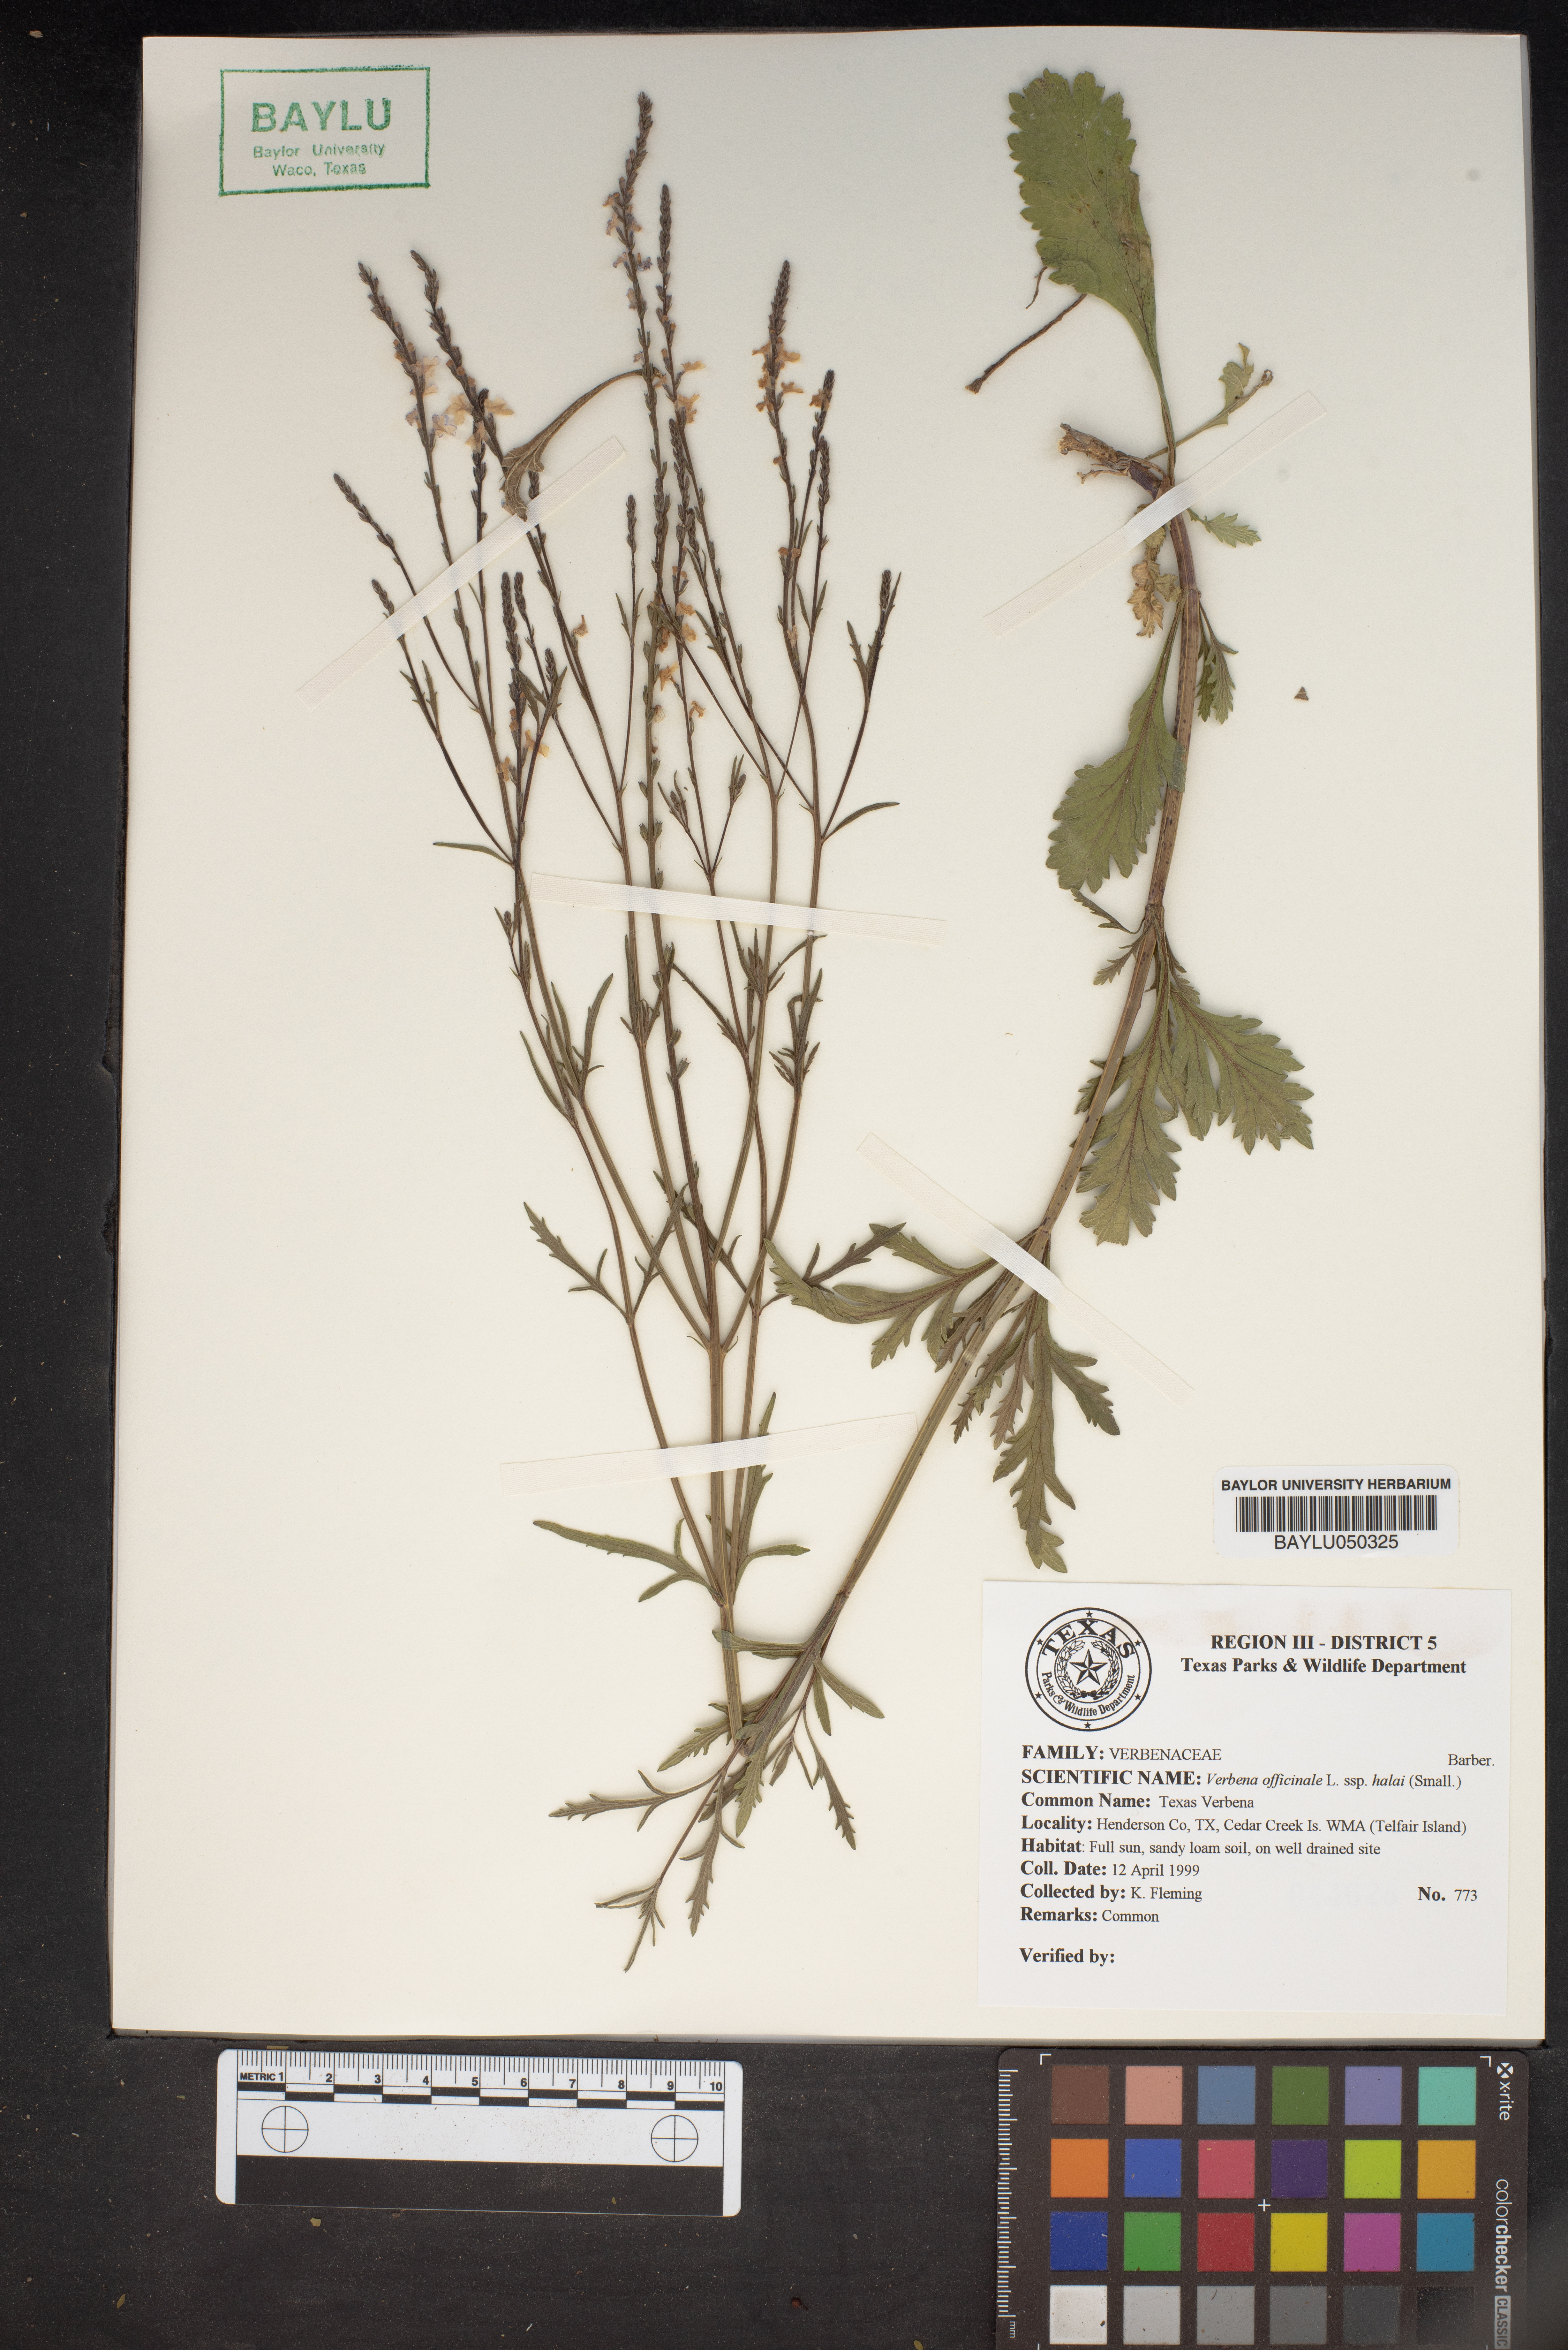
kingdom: Plantae
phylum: Tracheophyta
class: Magnoliopsida
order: Lamiales
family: Verbenaceae
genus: Verbena
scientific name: Verbena halei
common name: Texas vervain
